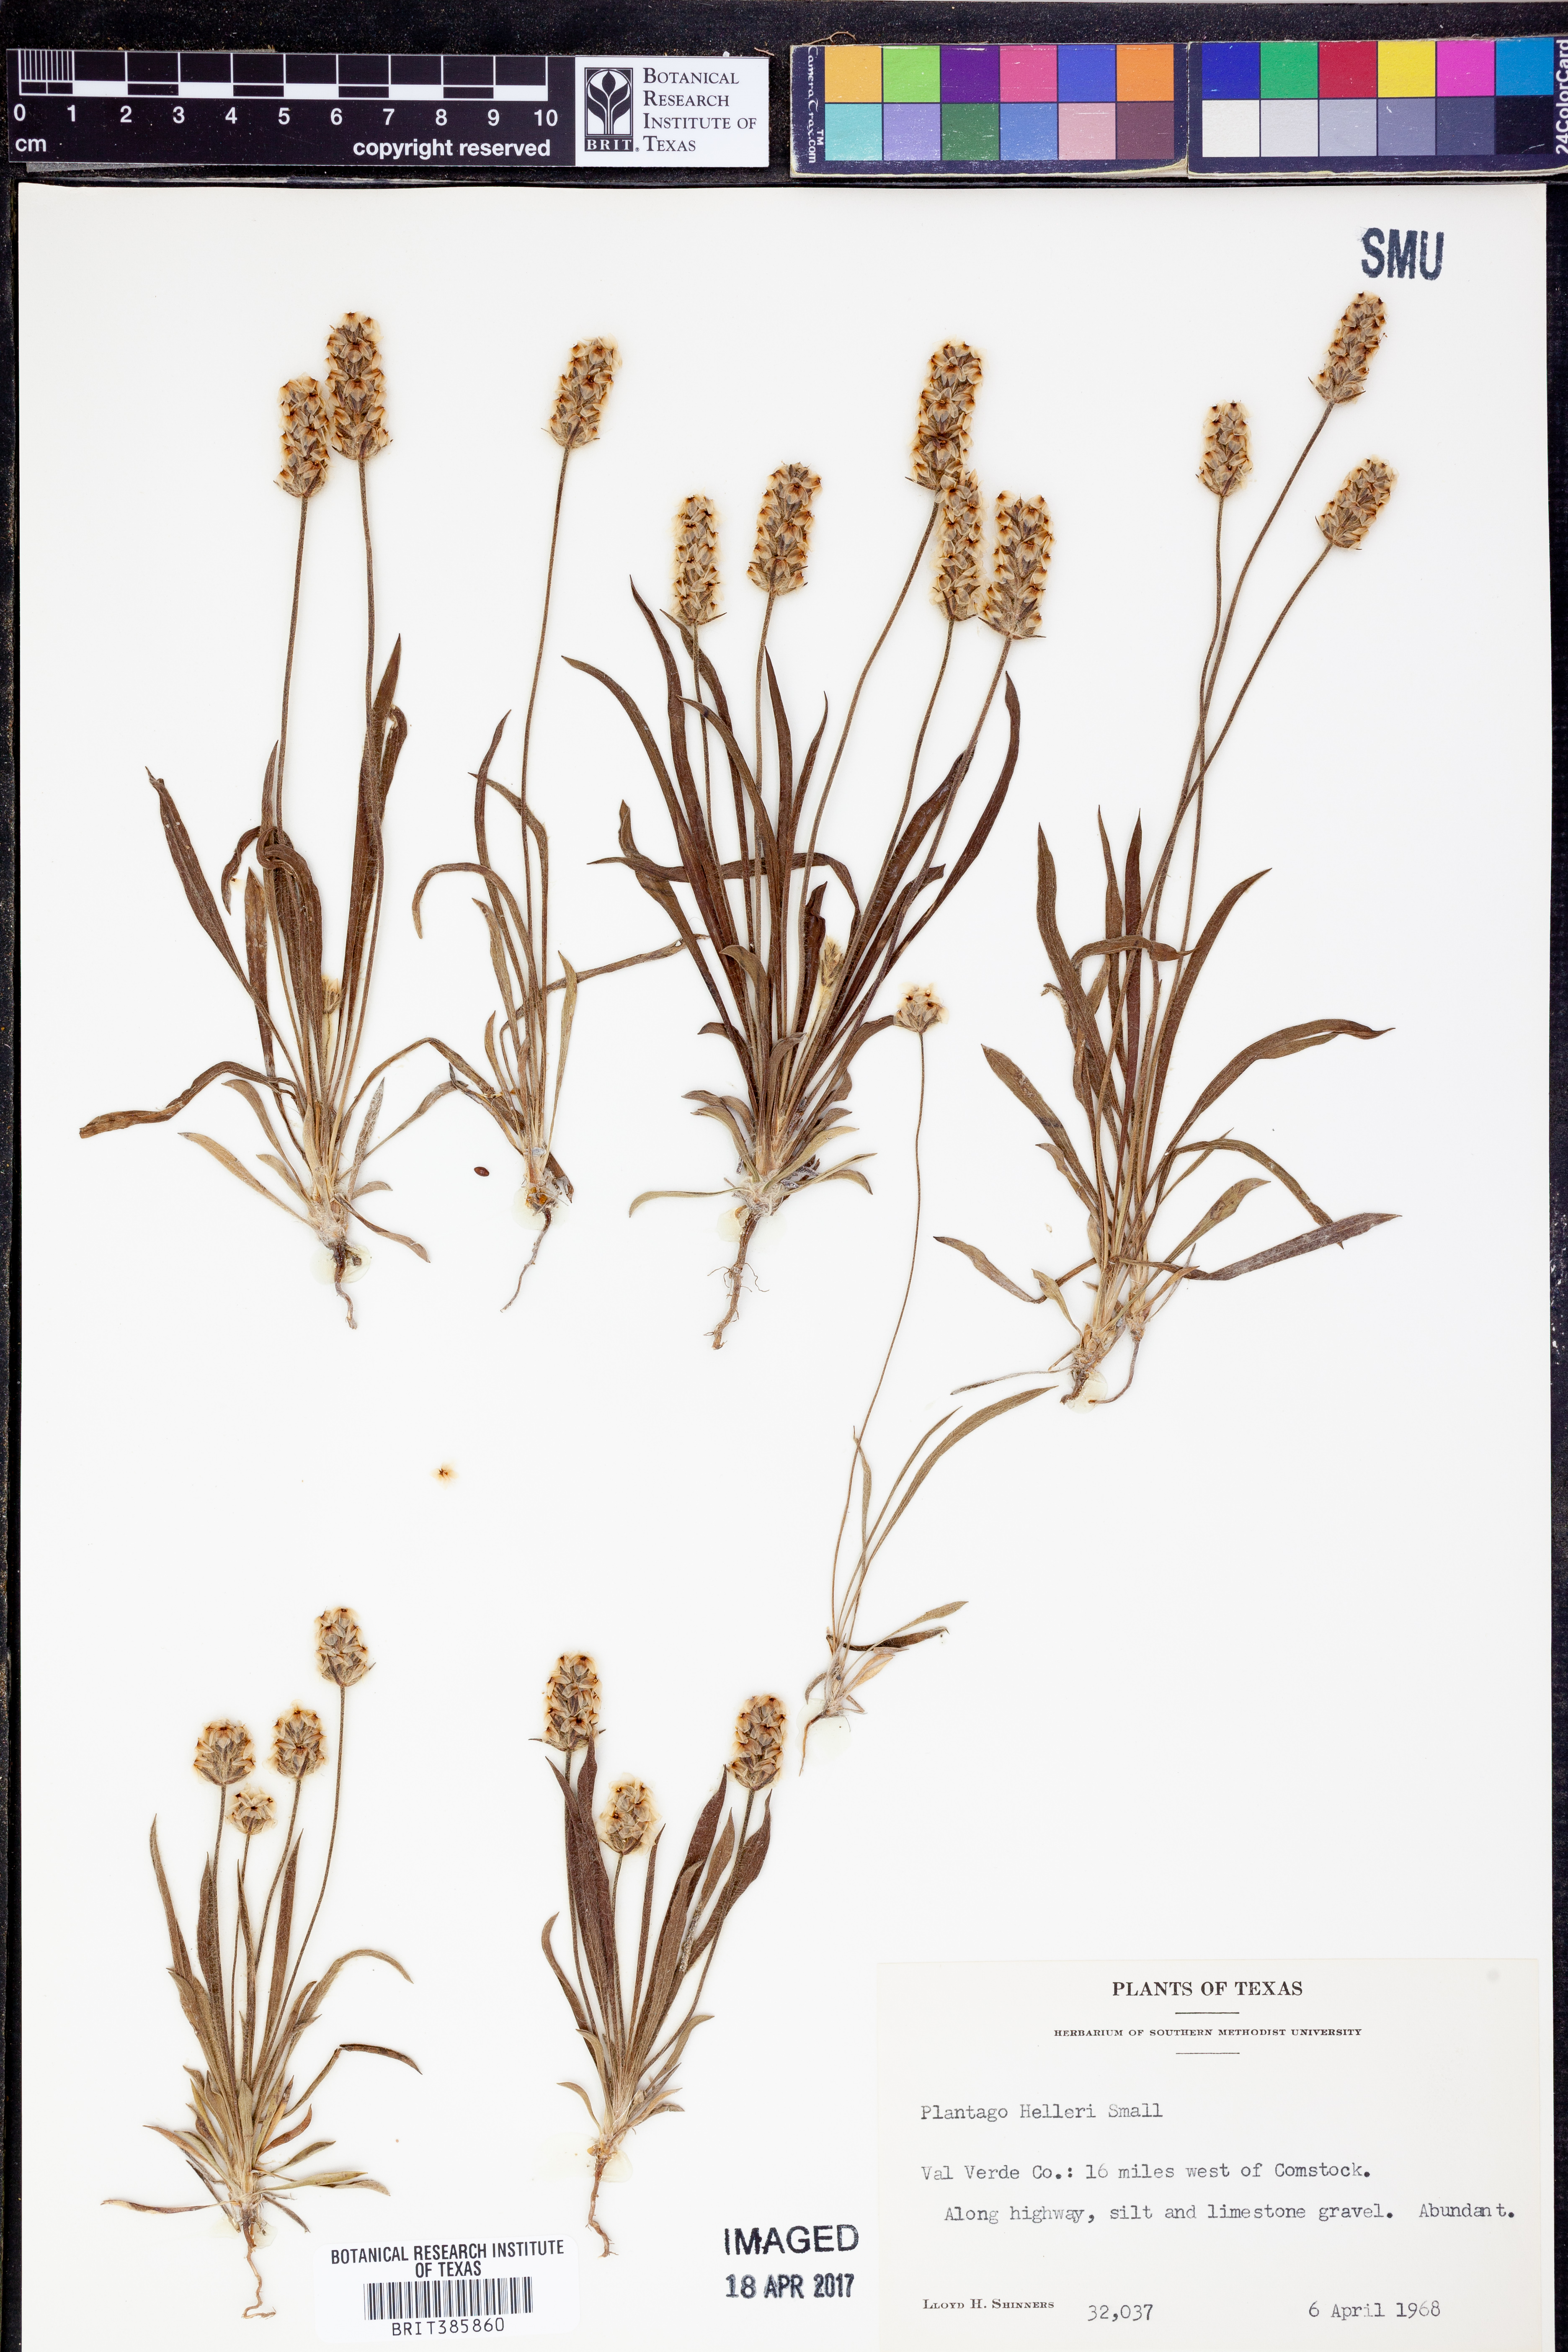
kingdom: Plantae
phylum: Tracheophyta
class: Magnoliopsida
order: Lamiales
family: Plantaginaceae
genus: Plantago
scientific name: Plantago helleri
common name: Heller's plantain
